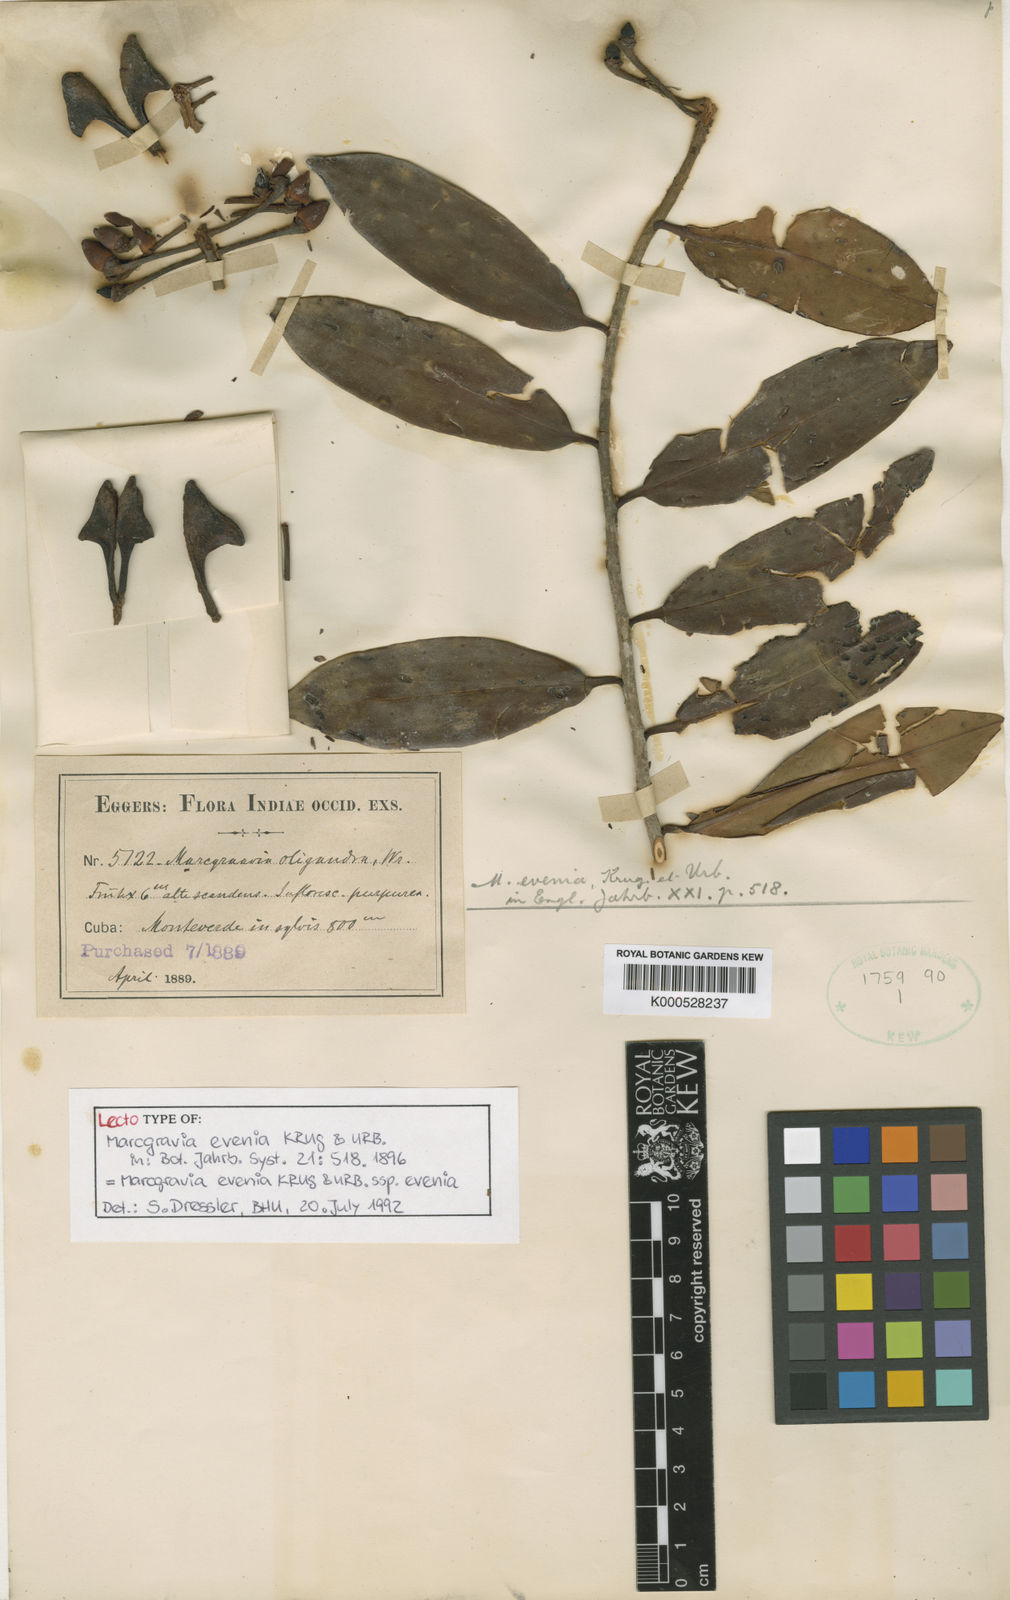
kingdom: Plantae
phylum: Tracheophyta
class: Magnoliopsida
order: Ericales
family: Marcgraviaceae
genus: Marcgravia
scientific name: Marcgravia evenia
